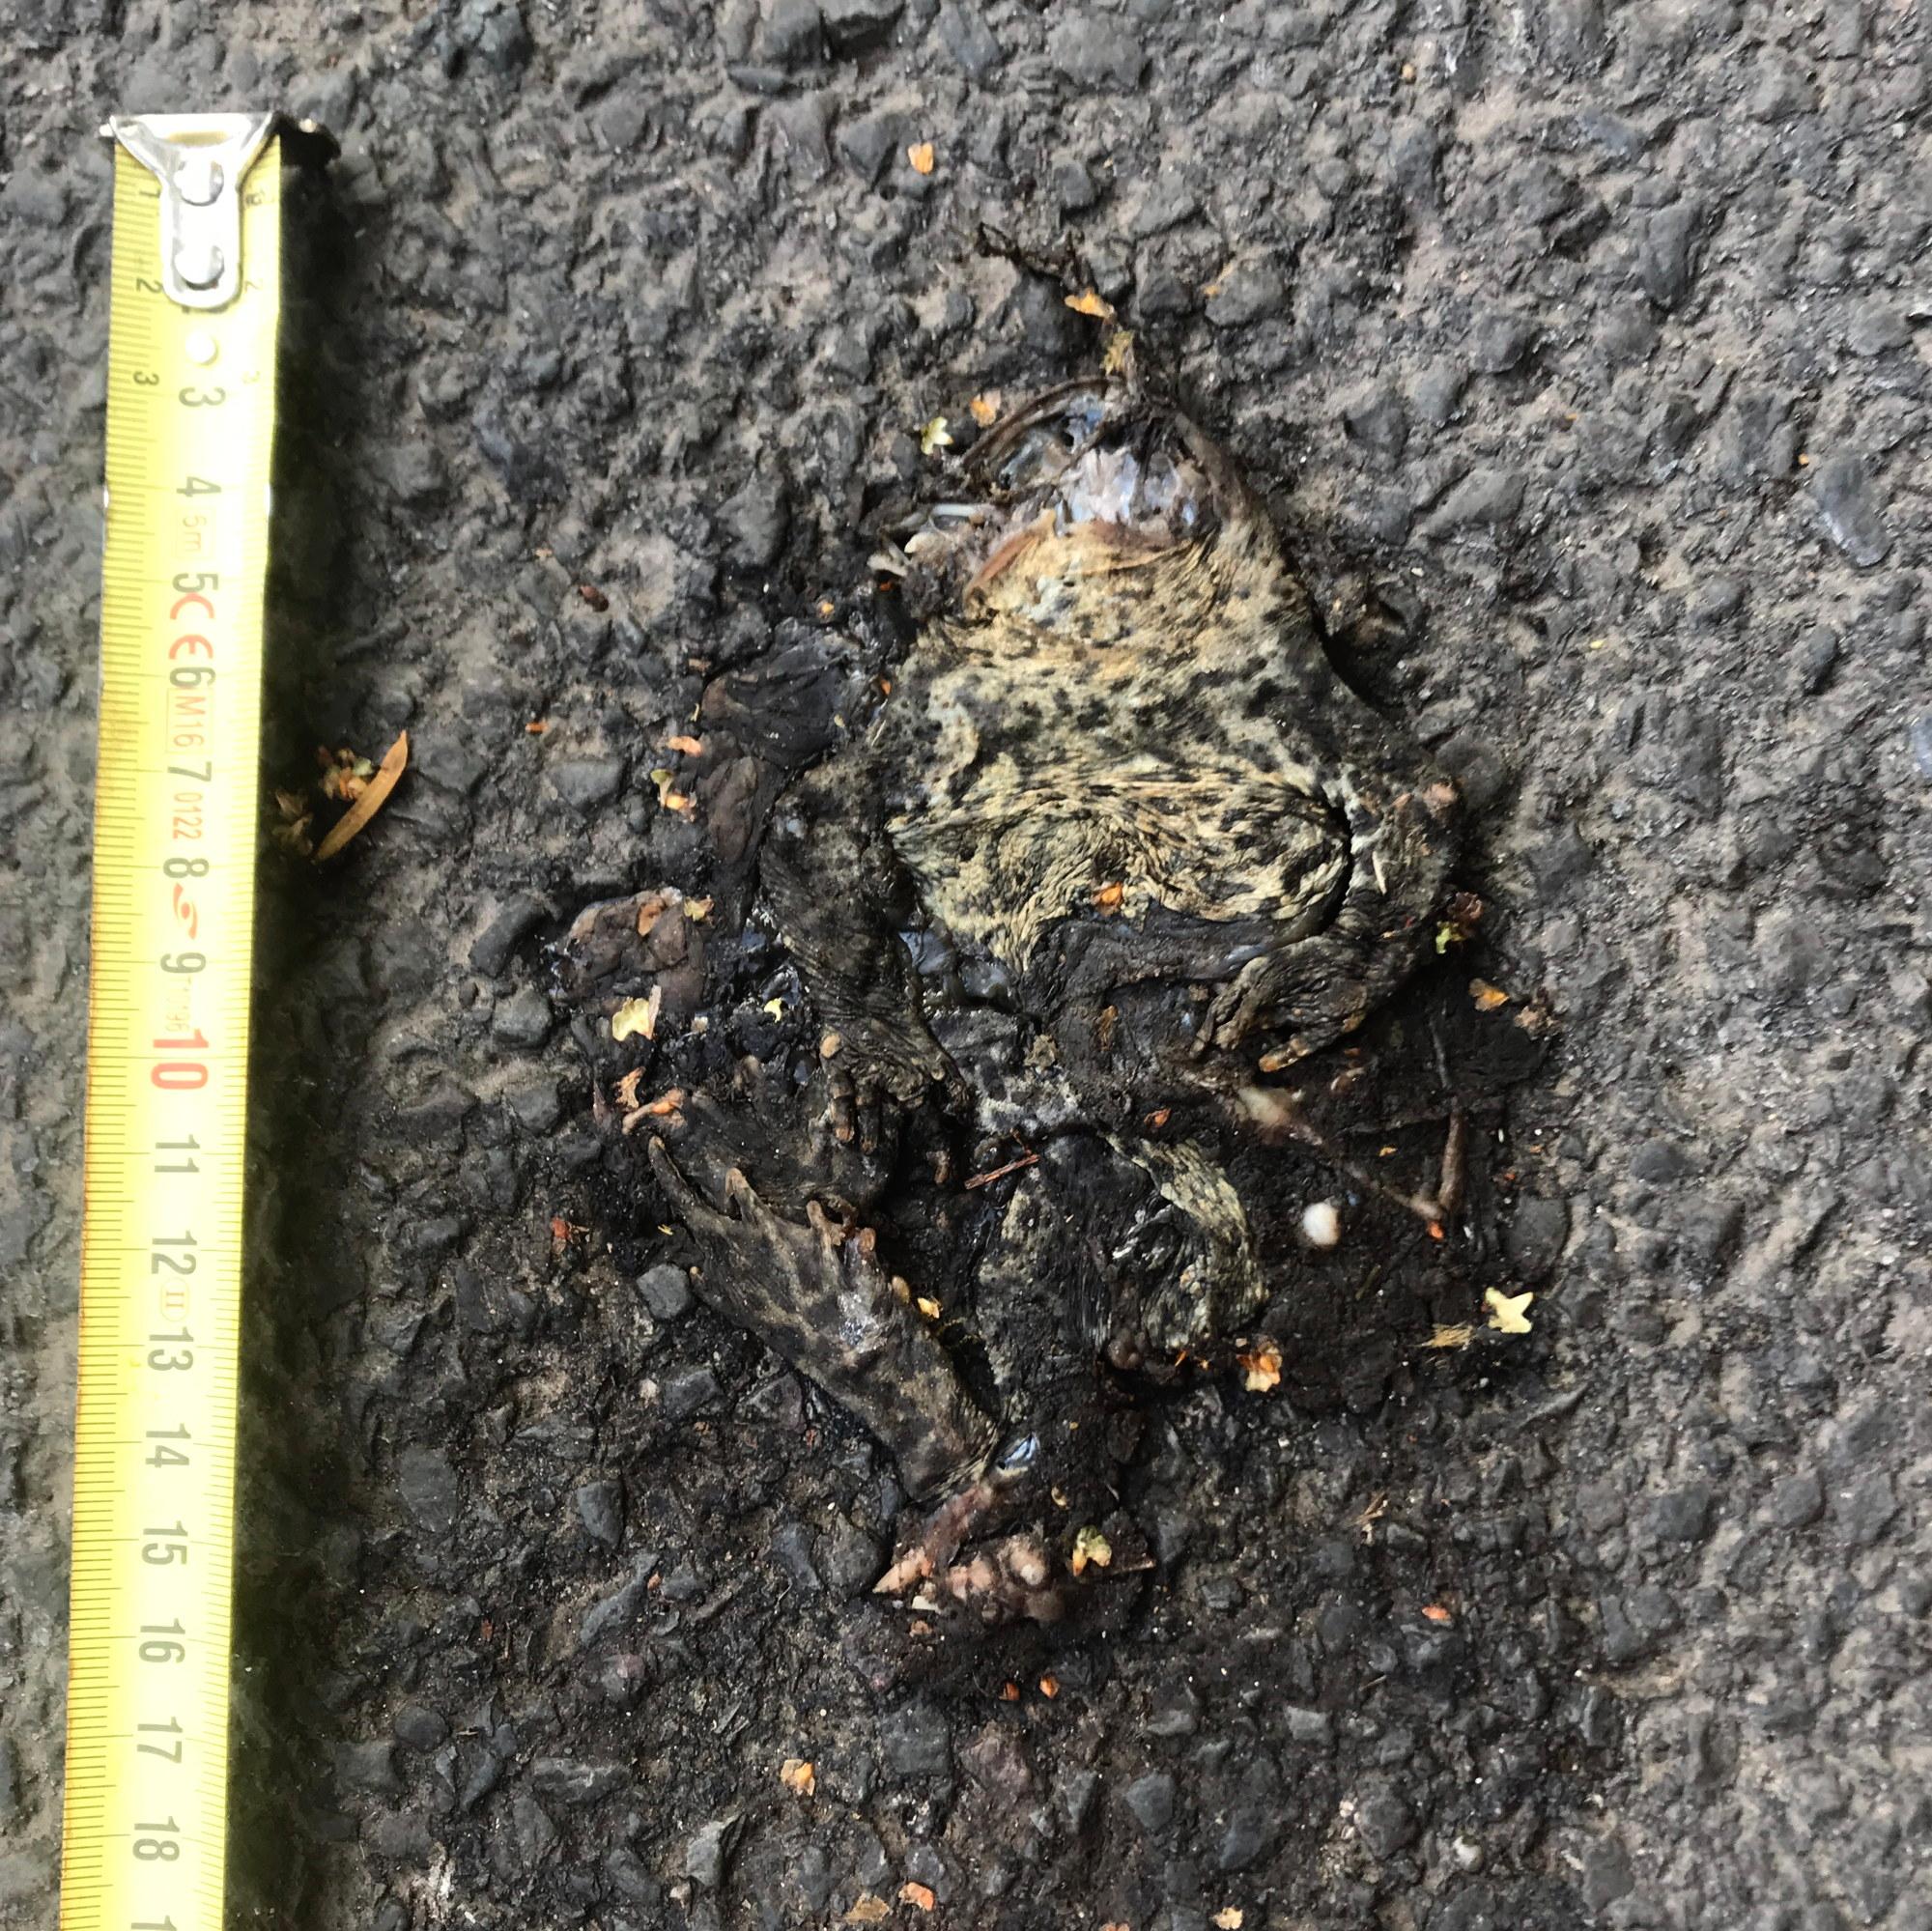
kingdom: Animalia
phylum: Chordata
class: Amphibia
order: Anura
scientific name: Anura
